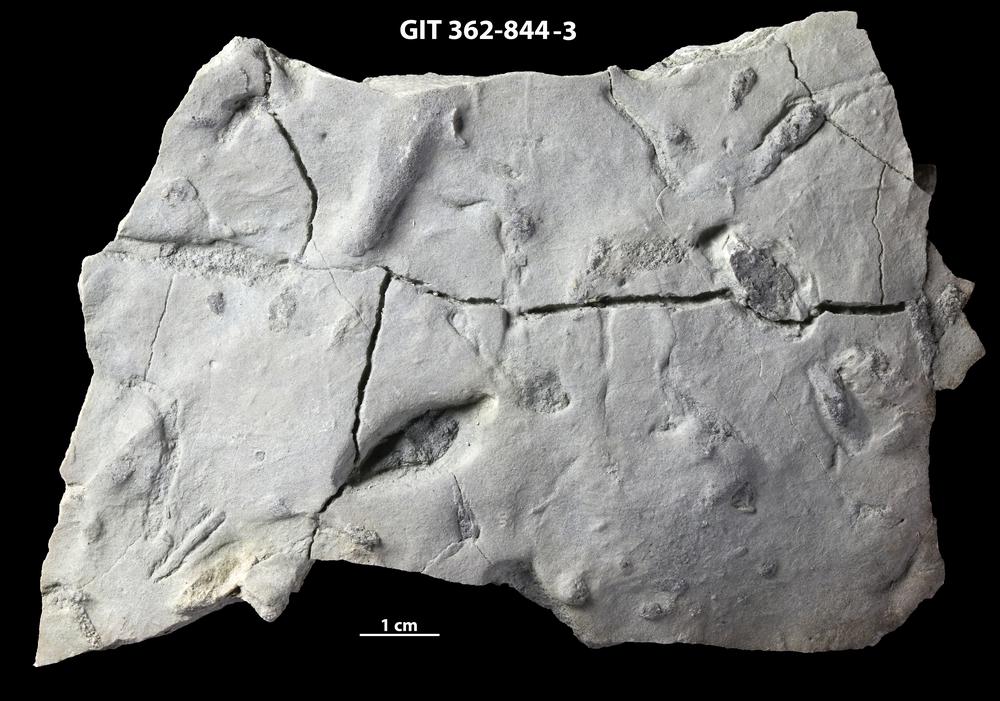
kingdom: Plantae
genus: Lockeia
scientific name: Lockeia
